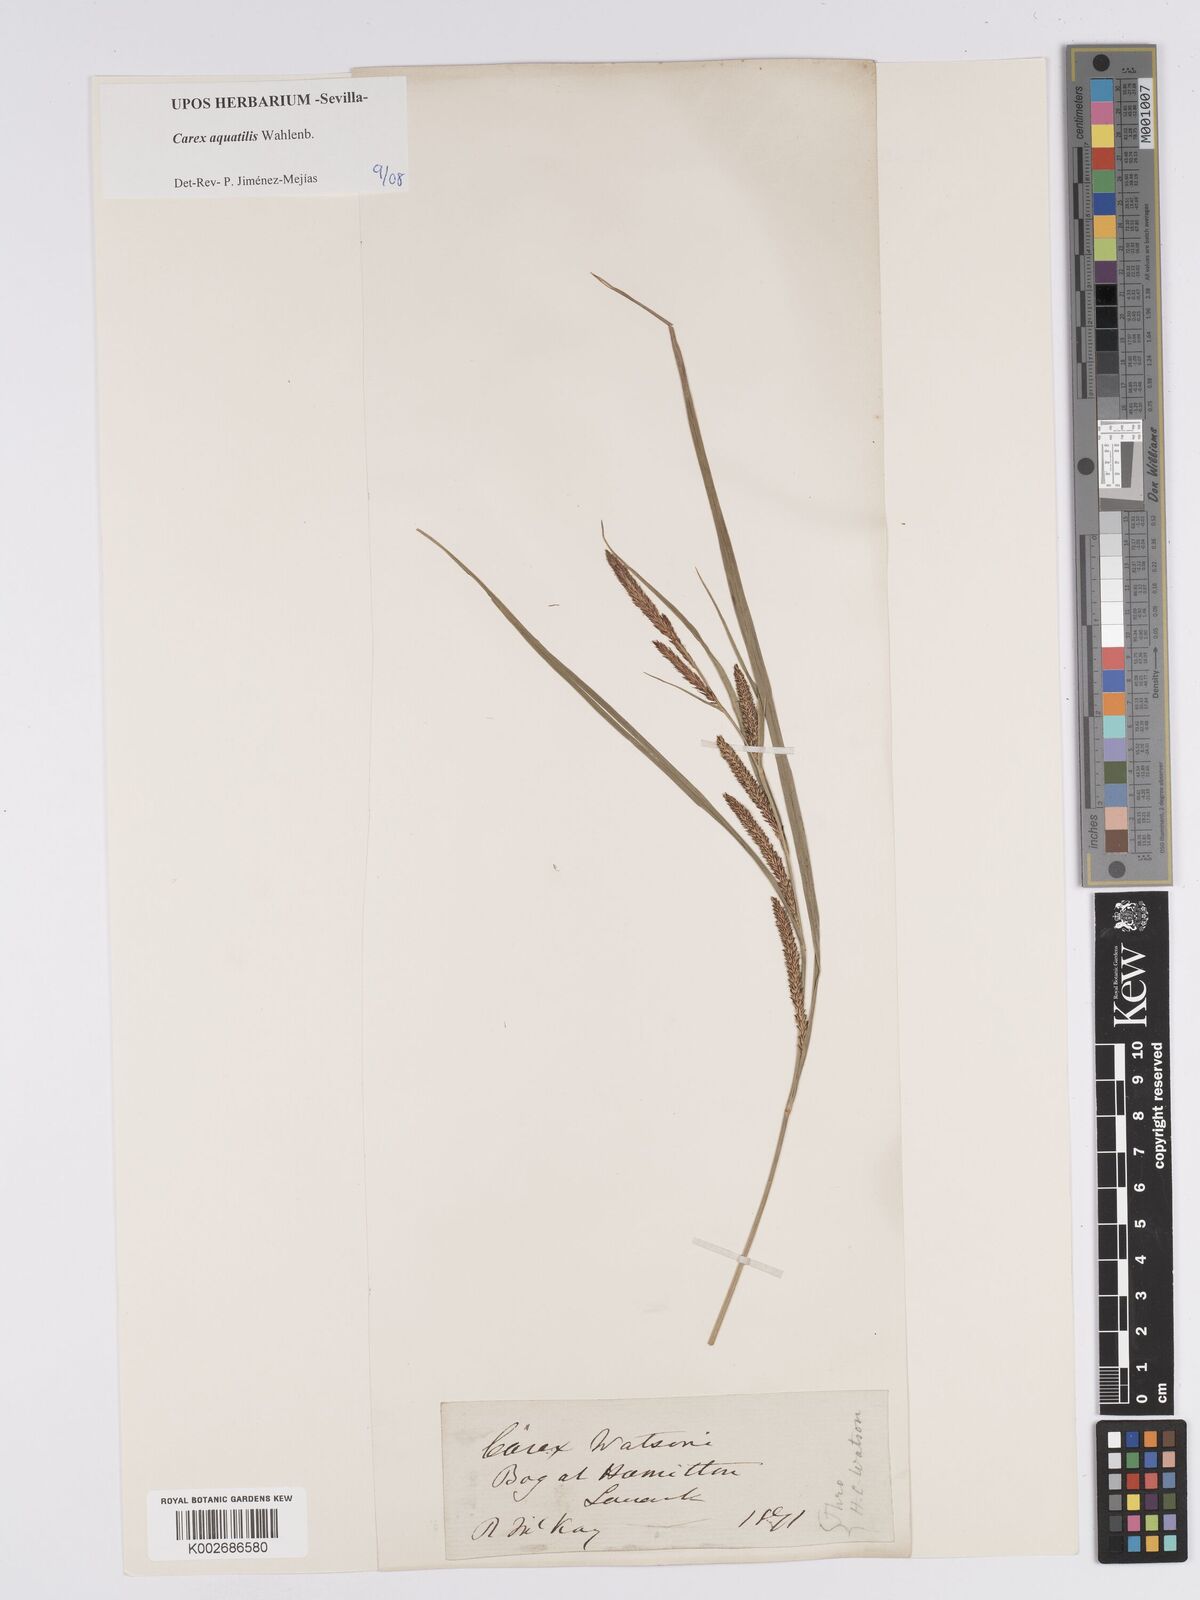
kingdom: Plantae
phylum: Tracheophyta
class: Liliopsida
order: Poales
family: Cyperaceae
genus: Carex
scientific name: Carex aquatilis
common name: Water sedge
